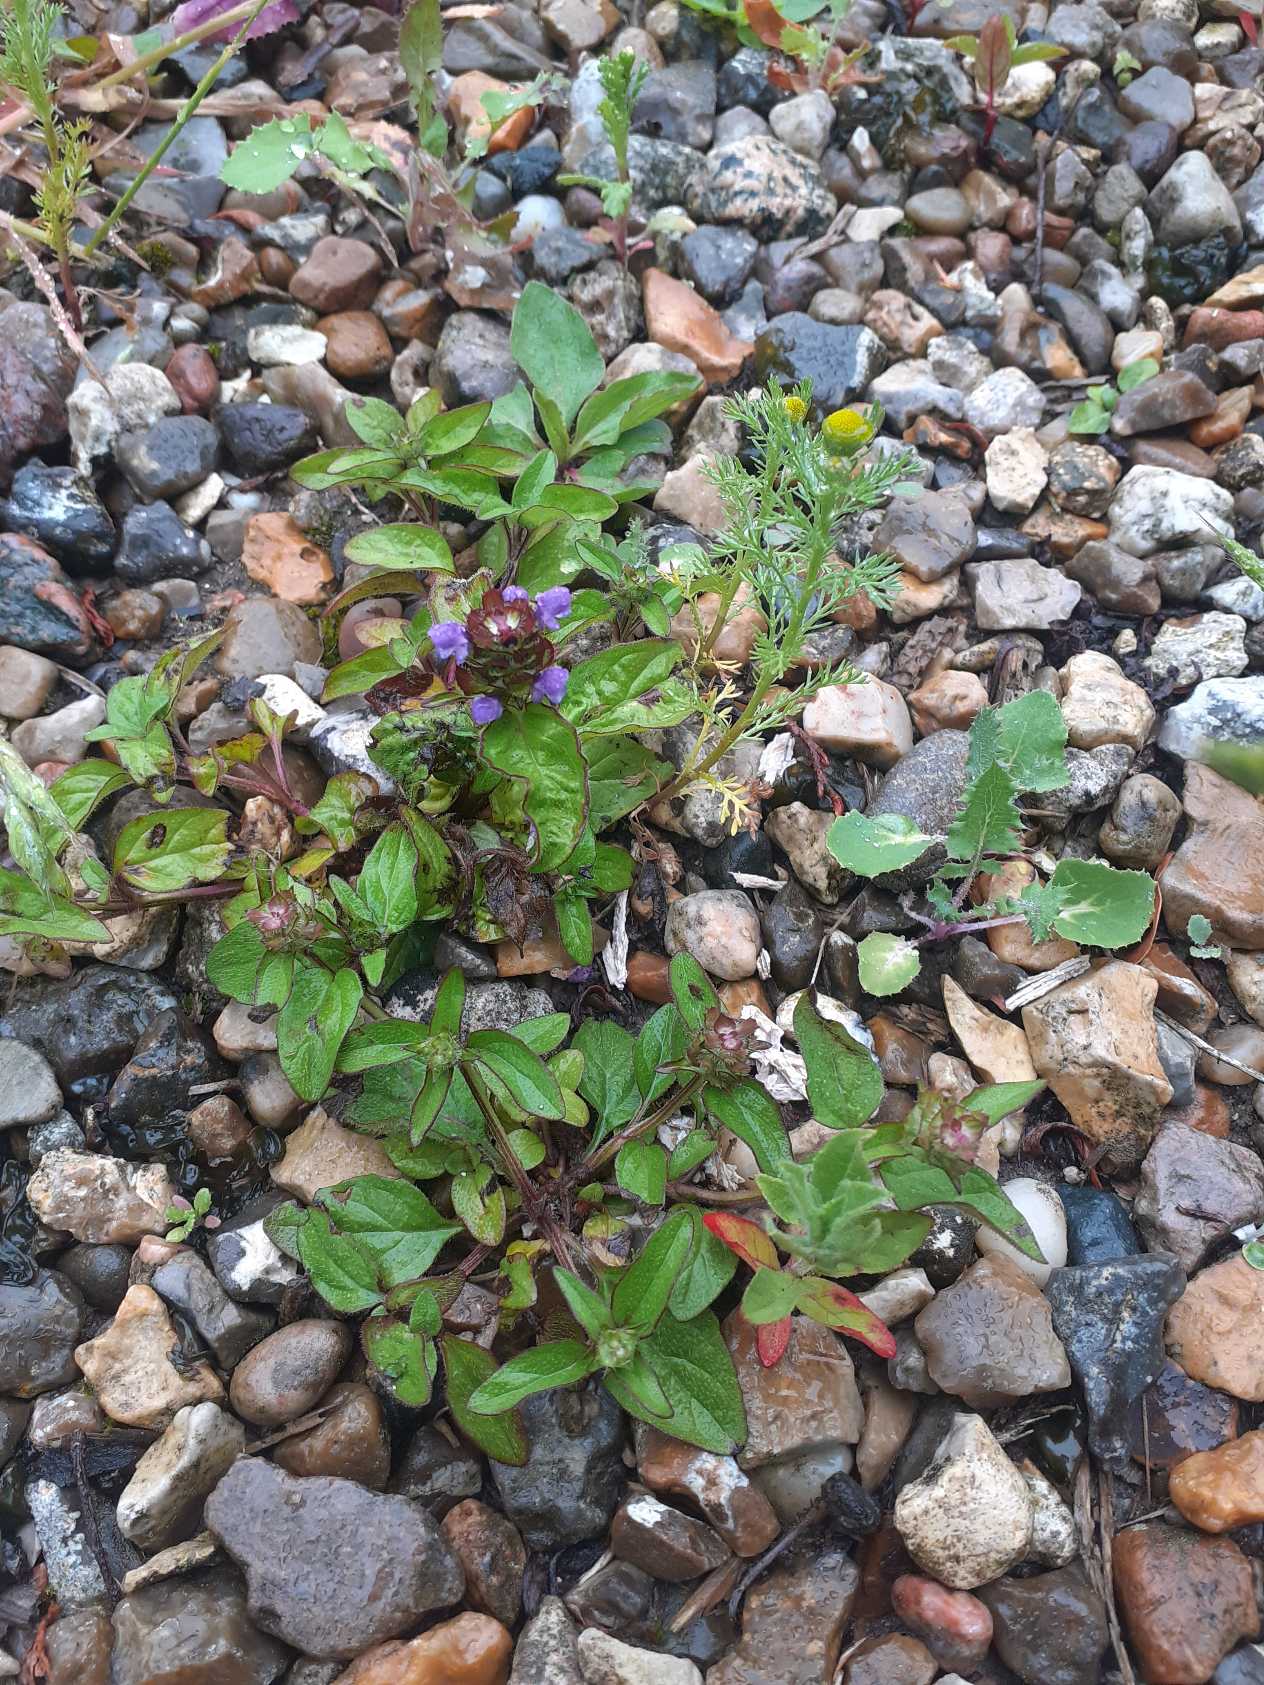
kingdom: Plantae
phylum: Tracheophyta
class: Magnoliopsida
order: Lamiales
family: Lamiaceae
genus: Prunella
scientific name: Prunella vulgaris
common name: Almindelig brunelle
